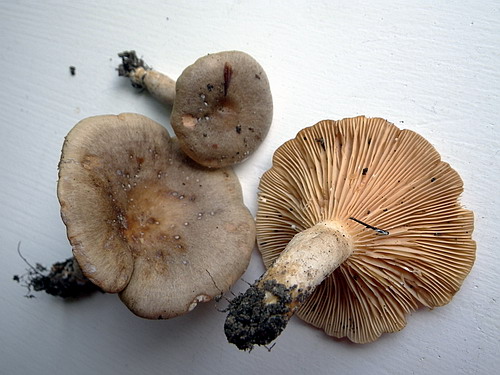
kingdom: Fungi
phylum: Basidiomycota
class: Agaricomycetes
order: Russulales
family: Russulaceae
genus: Lactarius
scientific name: Lactarius pyrogalus
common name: hassel-mælkehat
